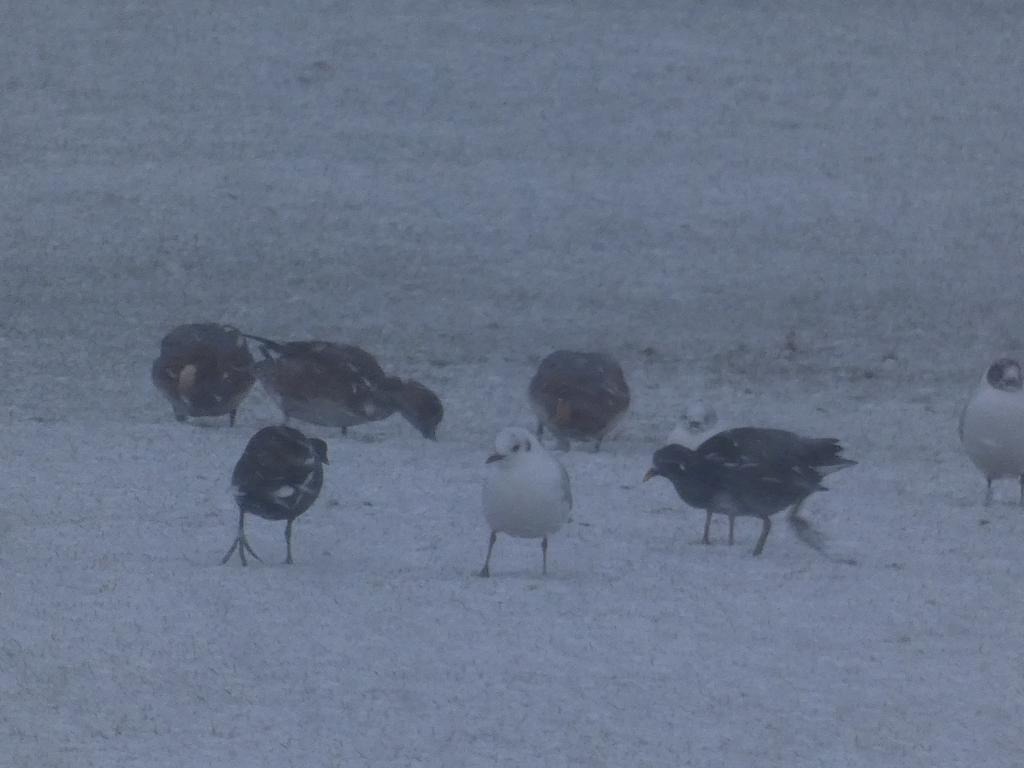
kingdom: Animalia
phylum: Chordata
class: Aves
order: Gruiformes
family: Rallidae
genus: Gallinula
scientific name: Gallinula chloropus
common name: Grønbenet rørhøne
